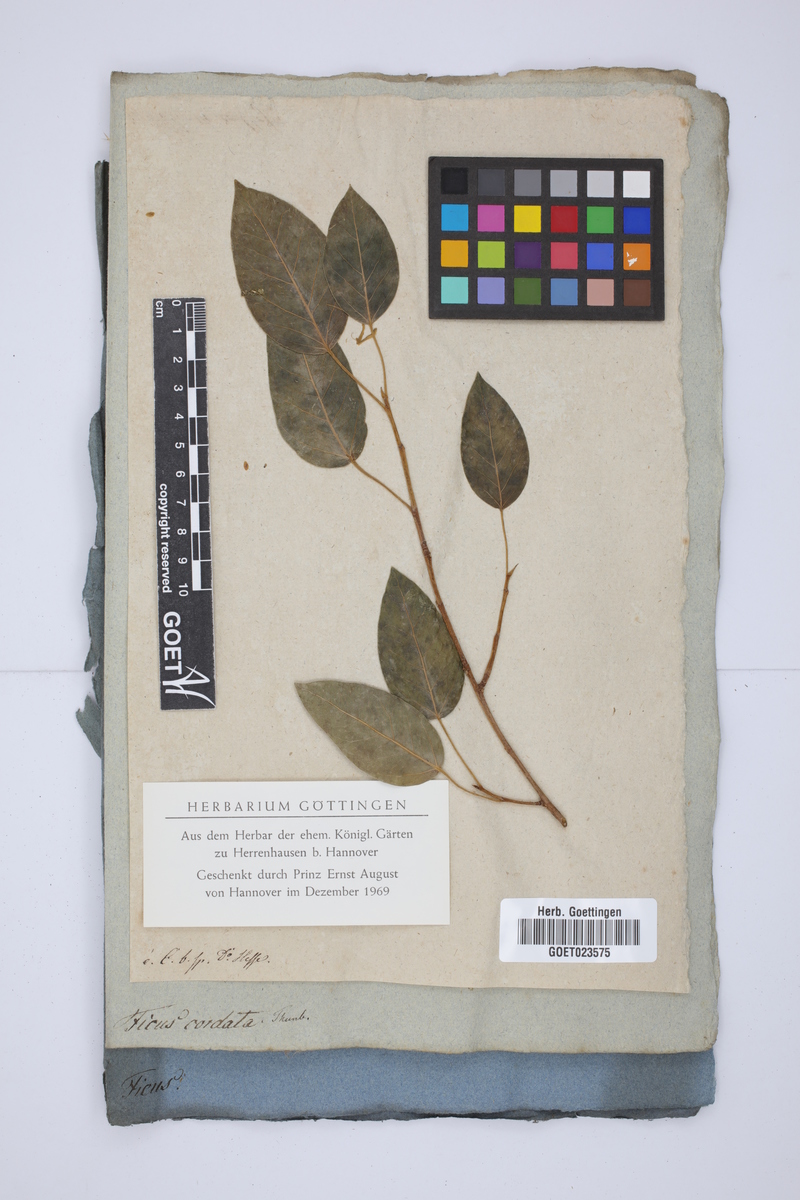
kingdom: Plantae
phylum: Tracheophyta
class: Magnoliopsida
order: Rosales
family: Moraceae
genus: Ficus
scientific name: Ficus cordata
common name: Namaqua rock fig
